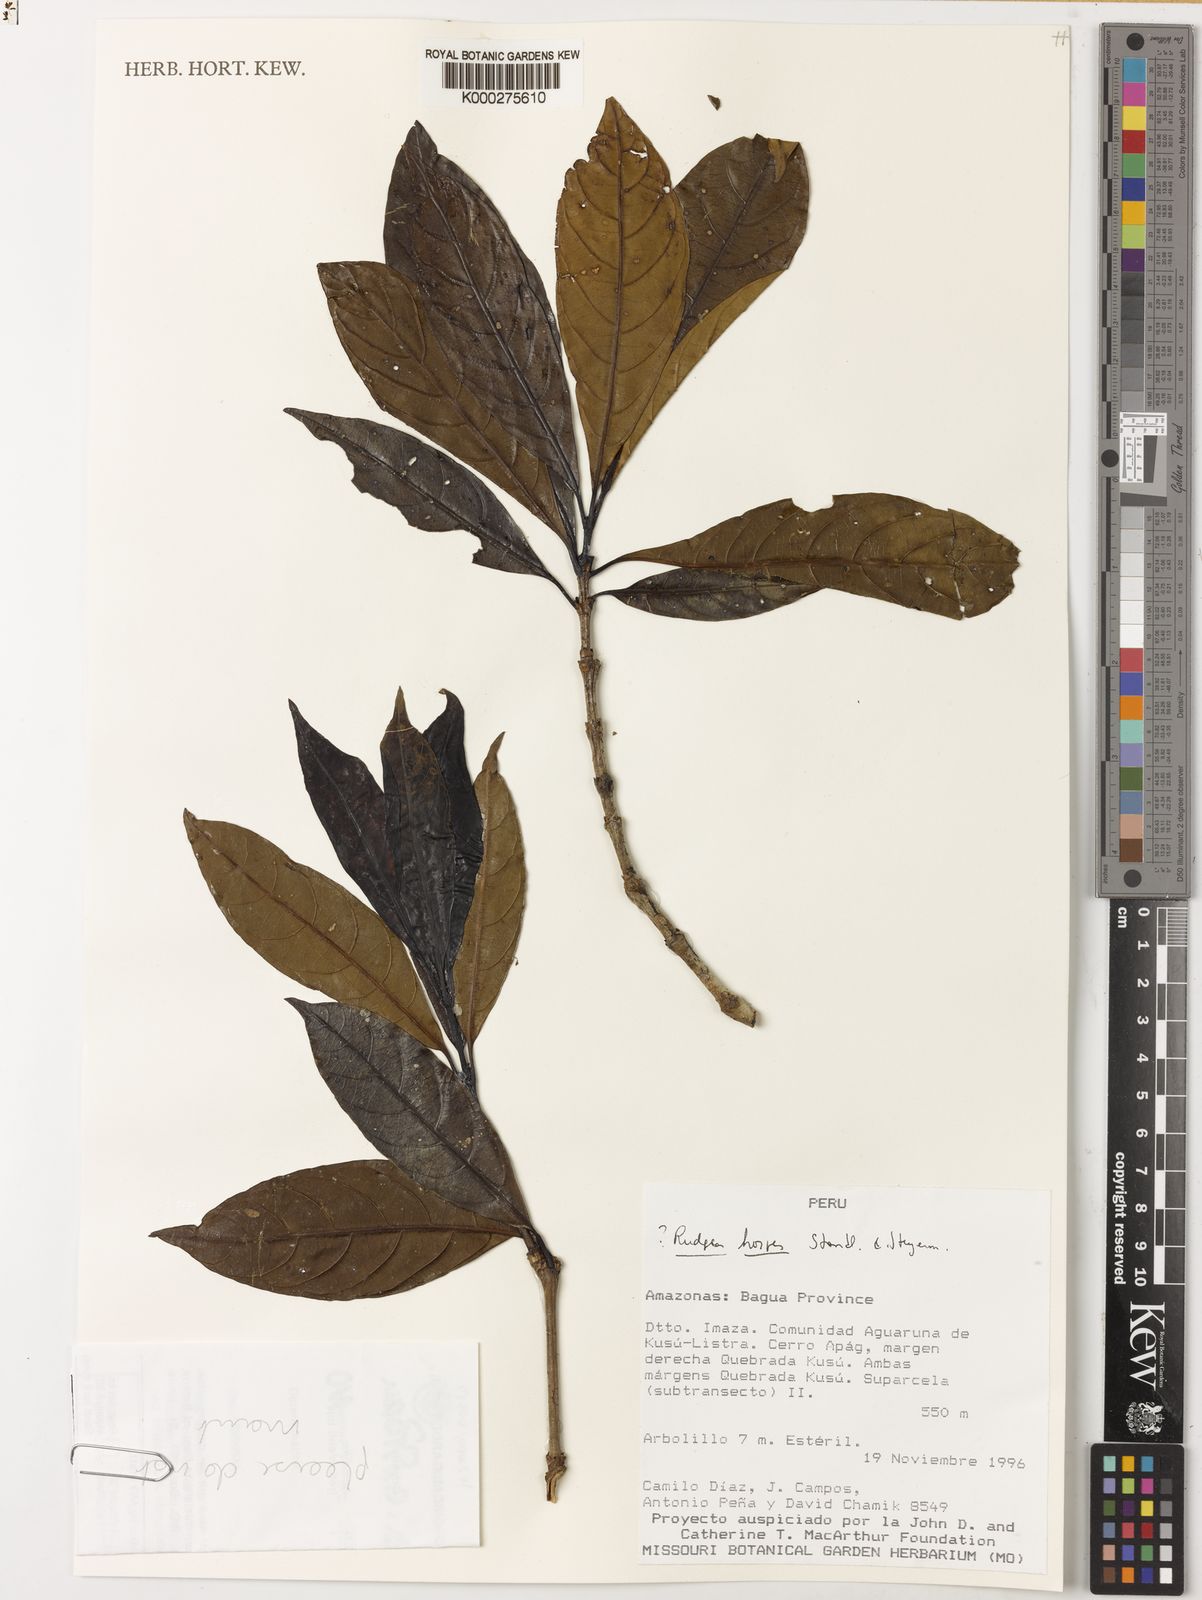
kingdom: Plantae
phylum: Tracheophyta
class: Magnoliopsida
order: Gentianales
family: Rubiaceae
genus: Rudgea
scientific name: Rudgea hospes
